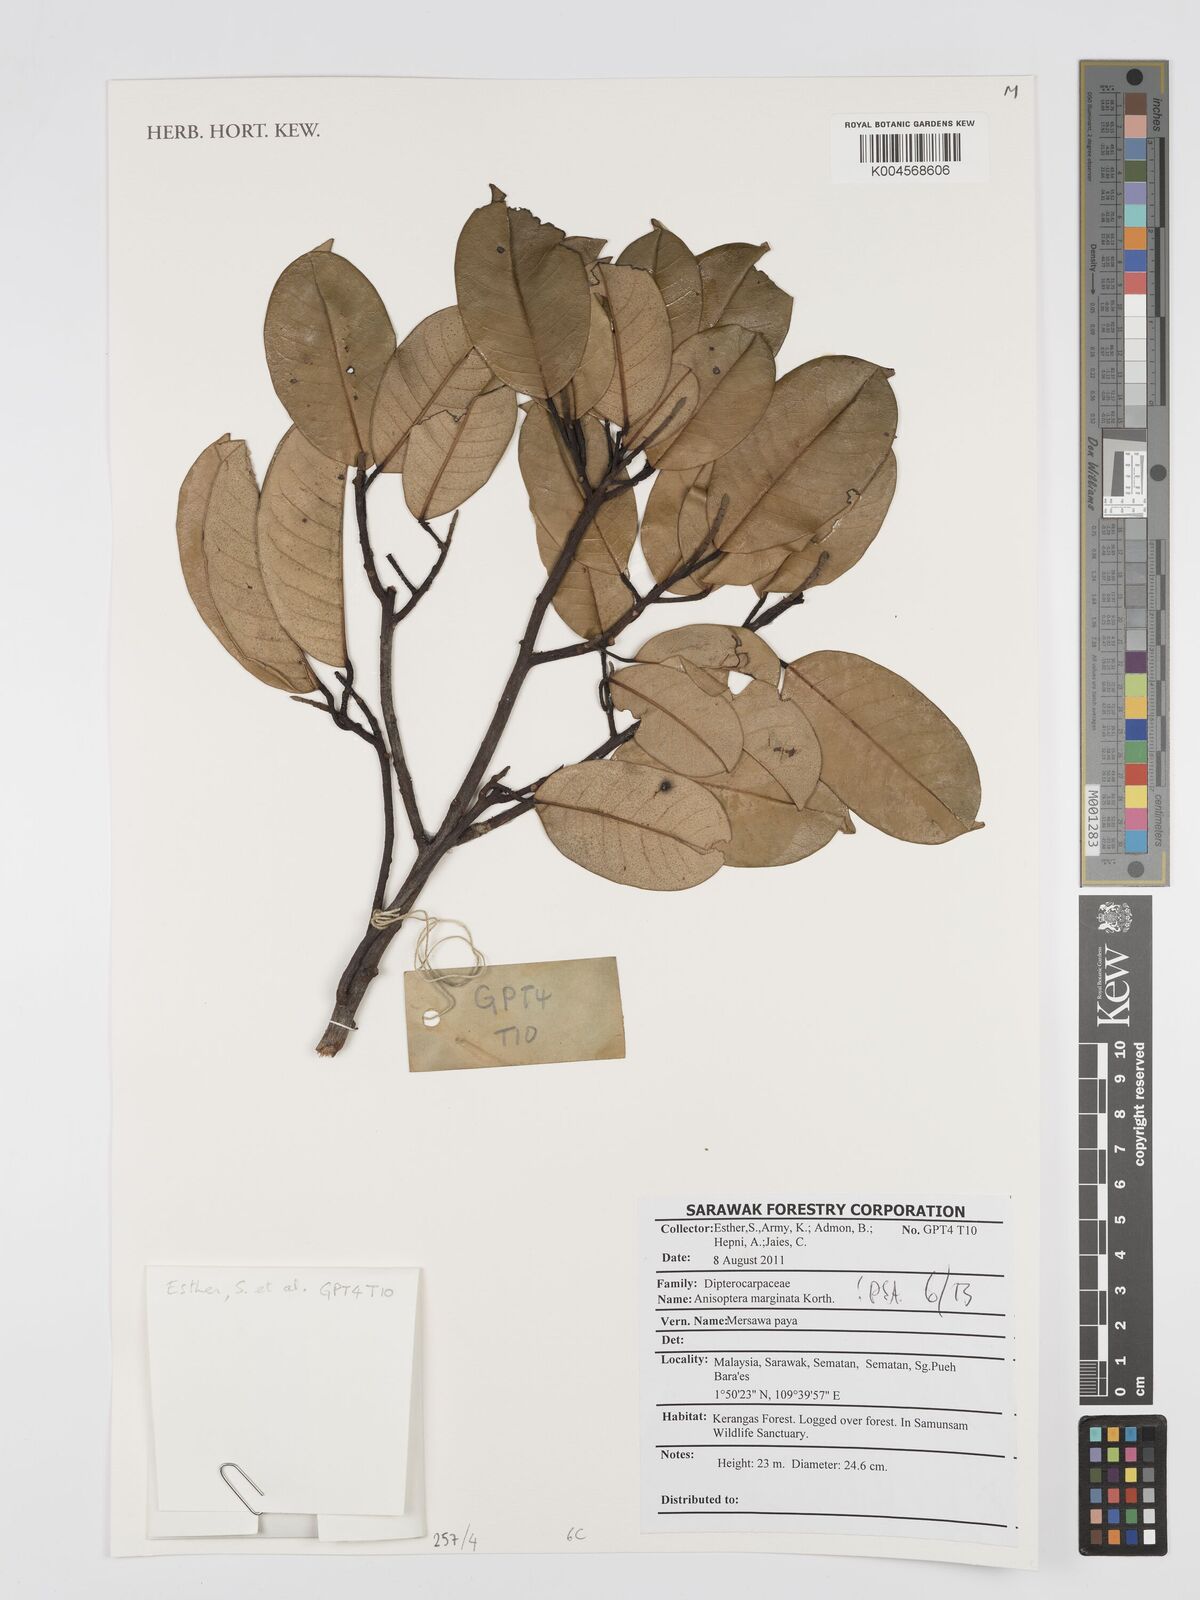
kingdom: Plantae
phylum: Tracheophyta
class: Magnoliopsida
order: Malvales
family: Dipterocarpaceae
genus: Anisoptera
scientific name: Anisoptera marginata
